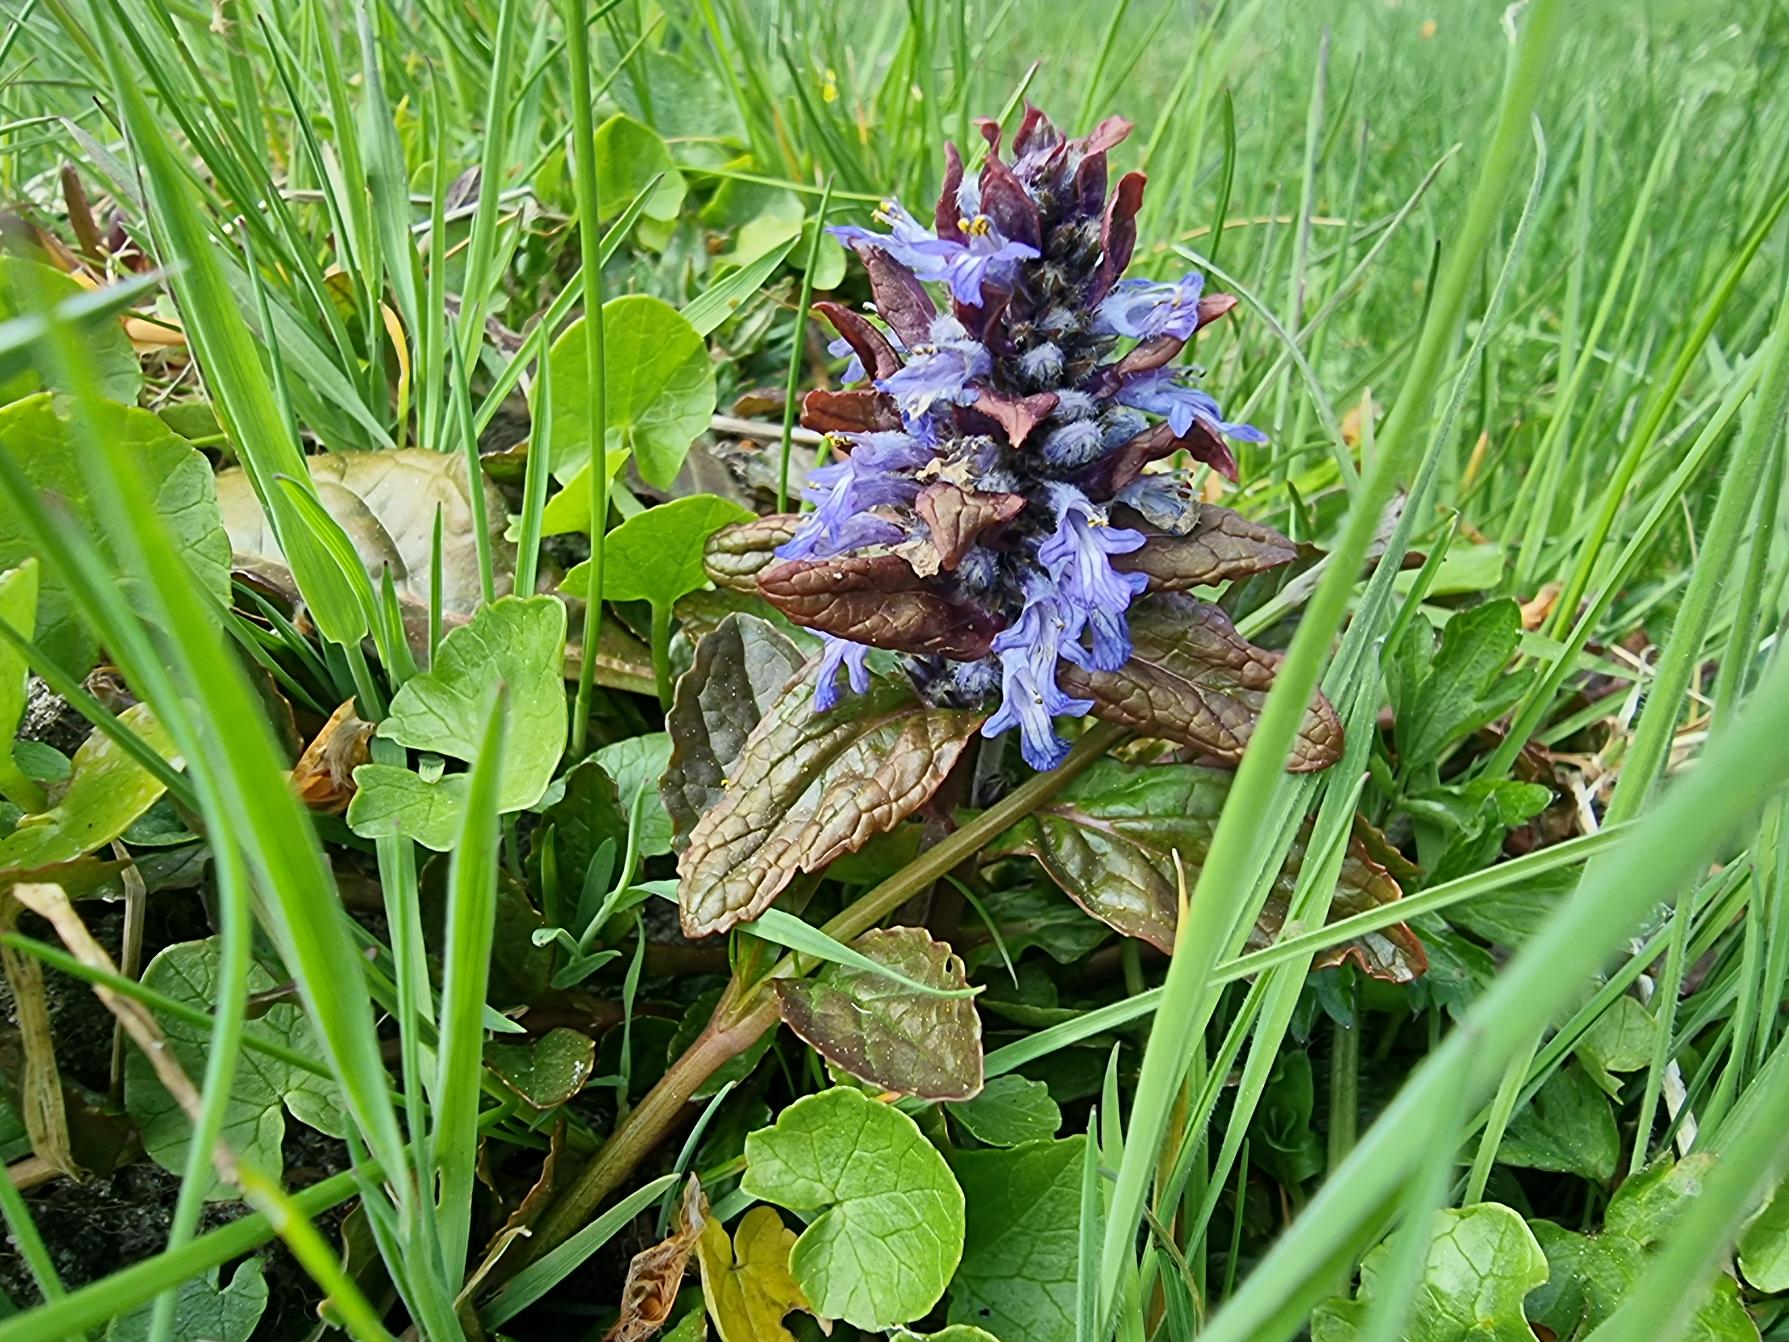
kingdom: Plantae
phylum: Tracheophyta
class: Magnoliopsida
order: Lamiales
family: Lamiaceae
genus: Ajuga
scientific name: Ajuga reptans
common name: Krybende læbeløs
